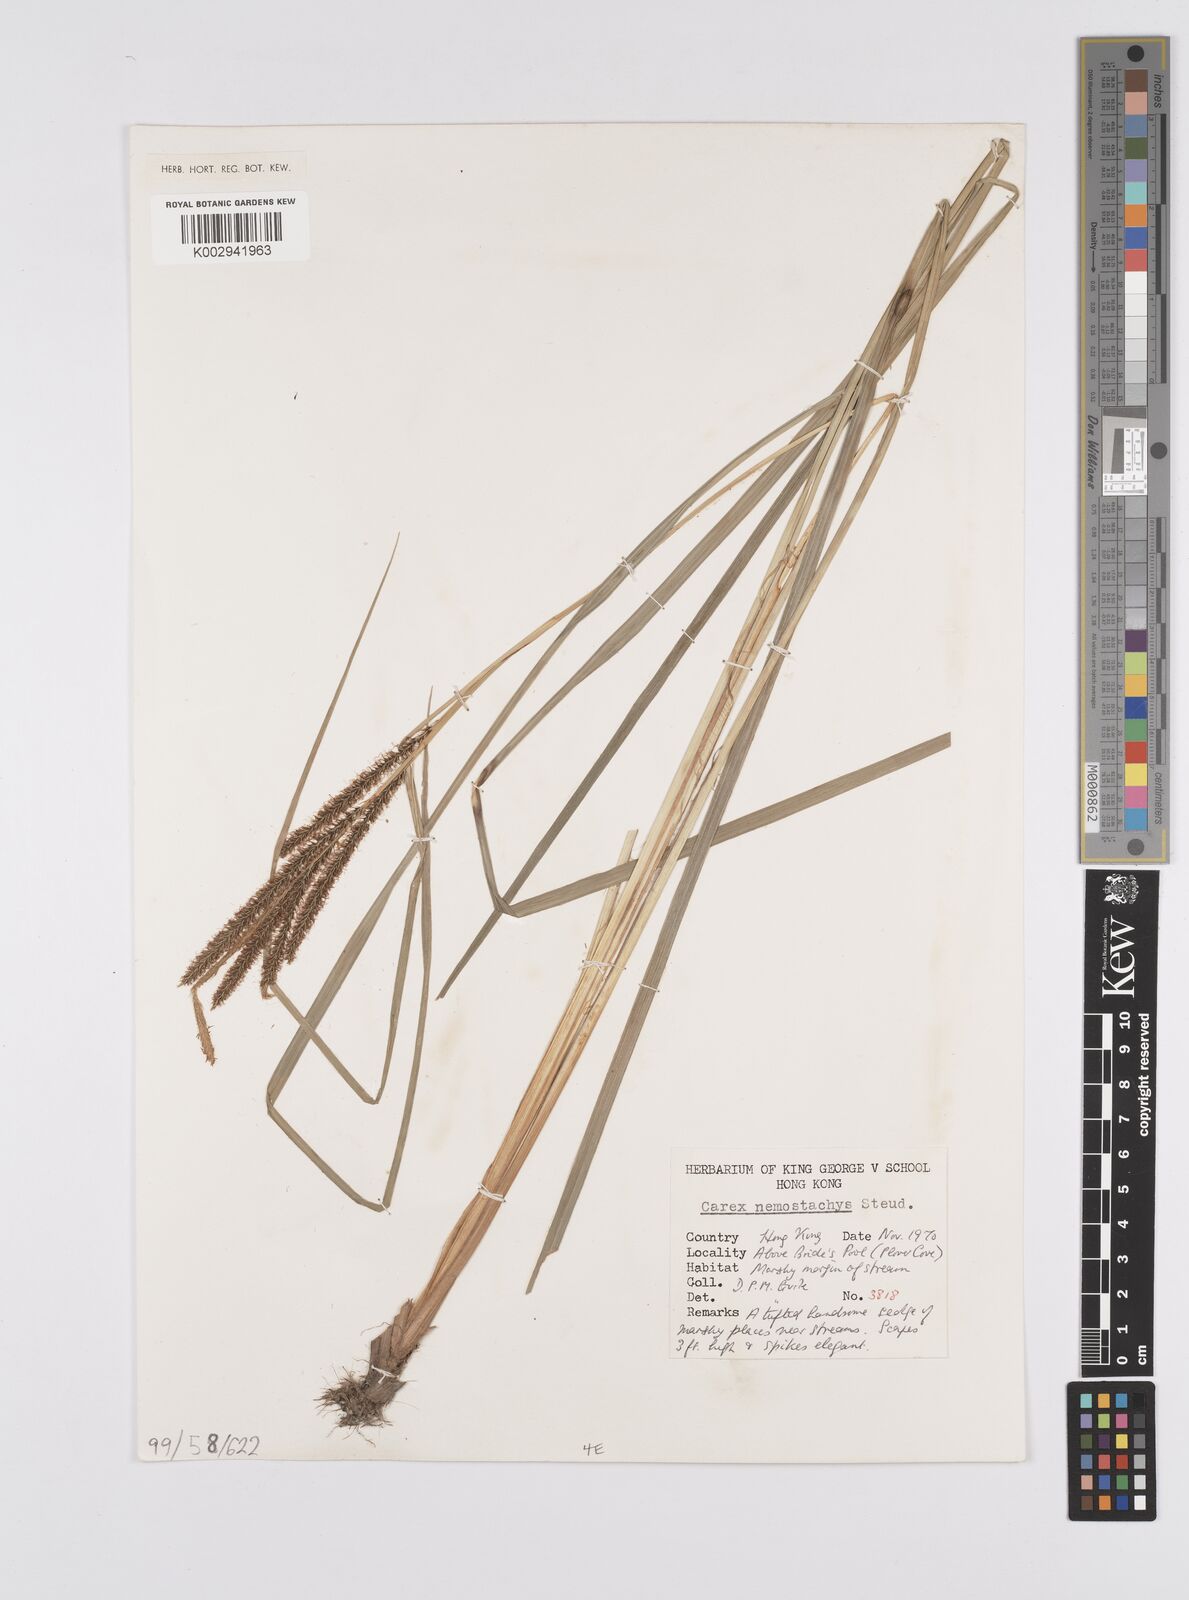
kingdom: Plantae
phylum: Tracheophyta
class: Liliopsida
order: Poales
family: Cyperaceae
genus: Carex
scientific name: Carex nemostachys
